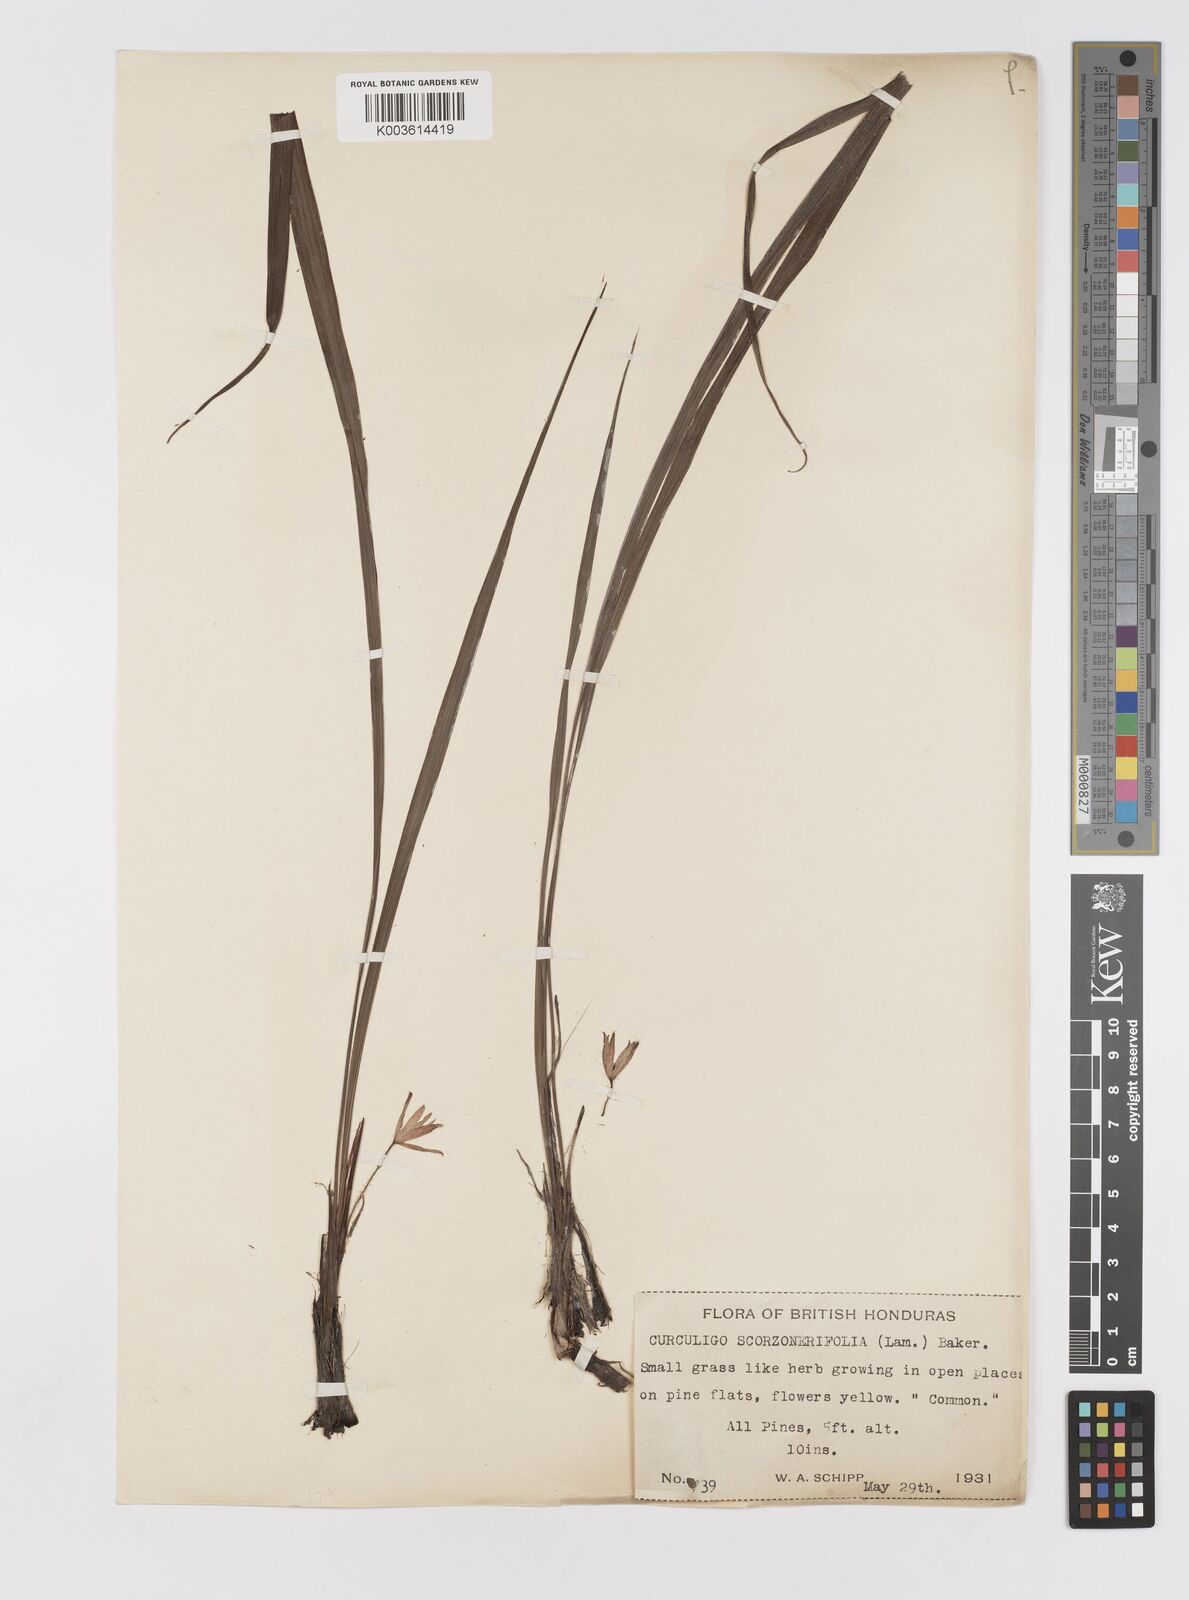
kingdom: Plantae
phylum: Tracheophyta
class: Liliopsida
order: Asparagales
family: Hypoxidaceae
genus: Curculigo
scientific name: Curculigo scorzonerifolia
